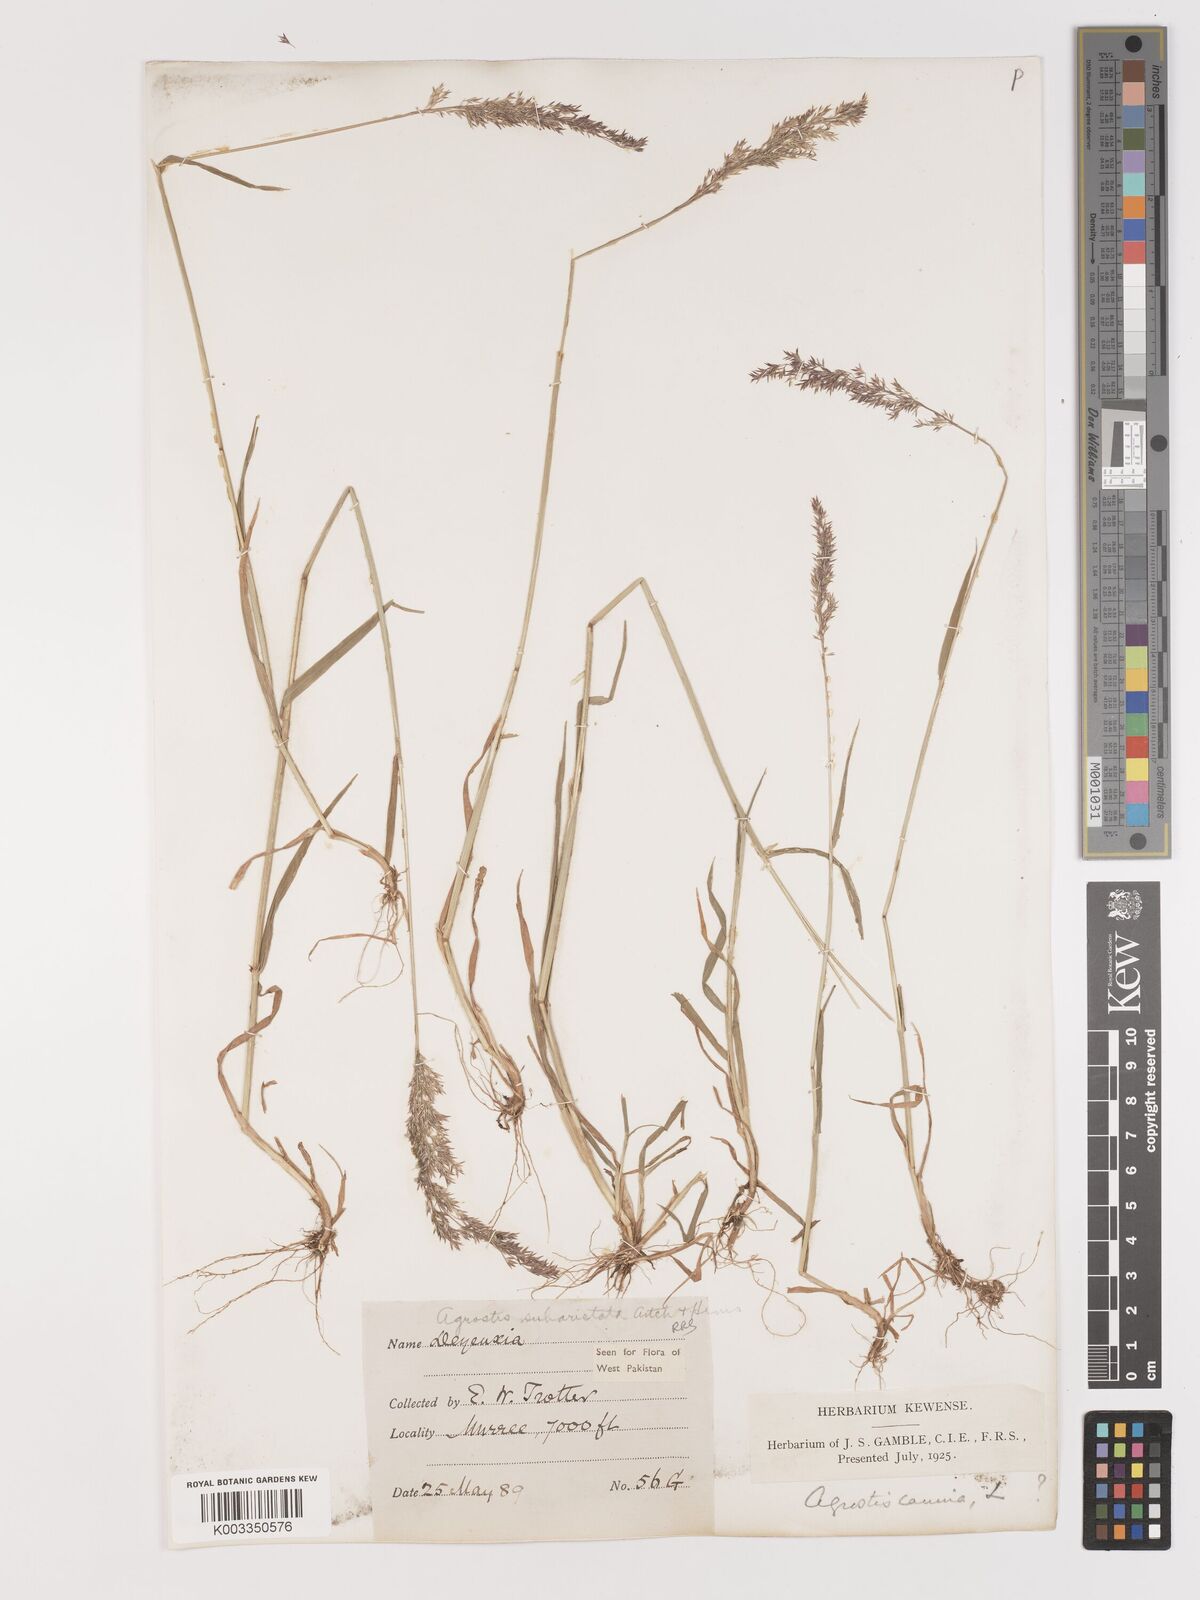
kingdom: Plantae
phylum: Tracheophyta
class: Liliopsida
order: Poales
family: Poaceae
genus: Agropogon
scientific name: Agropogon lutosus
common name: Coast agropogon
